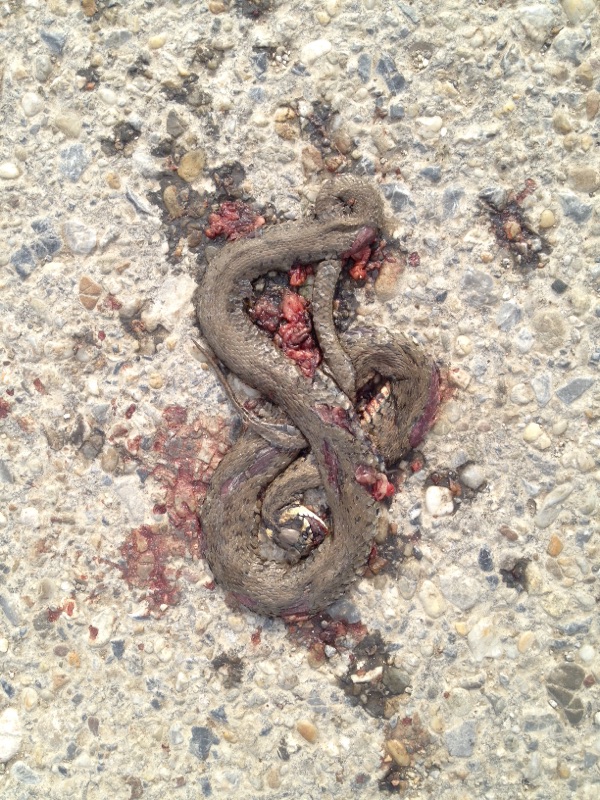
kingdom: Animalia
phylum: Chordata
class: Squamata
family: Colubridae
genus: Natrix
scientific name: Natrix natrix
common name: Grass snake
